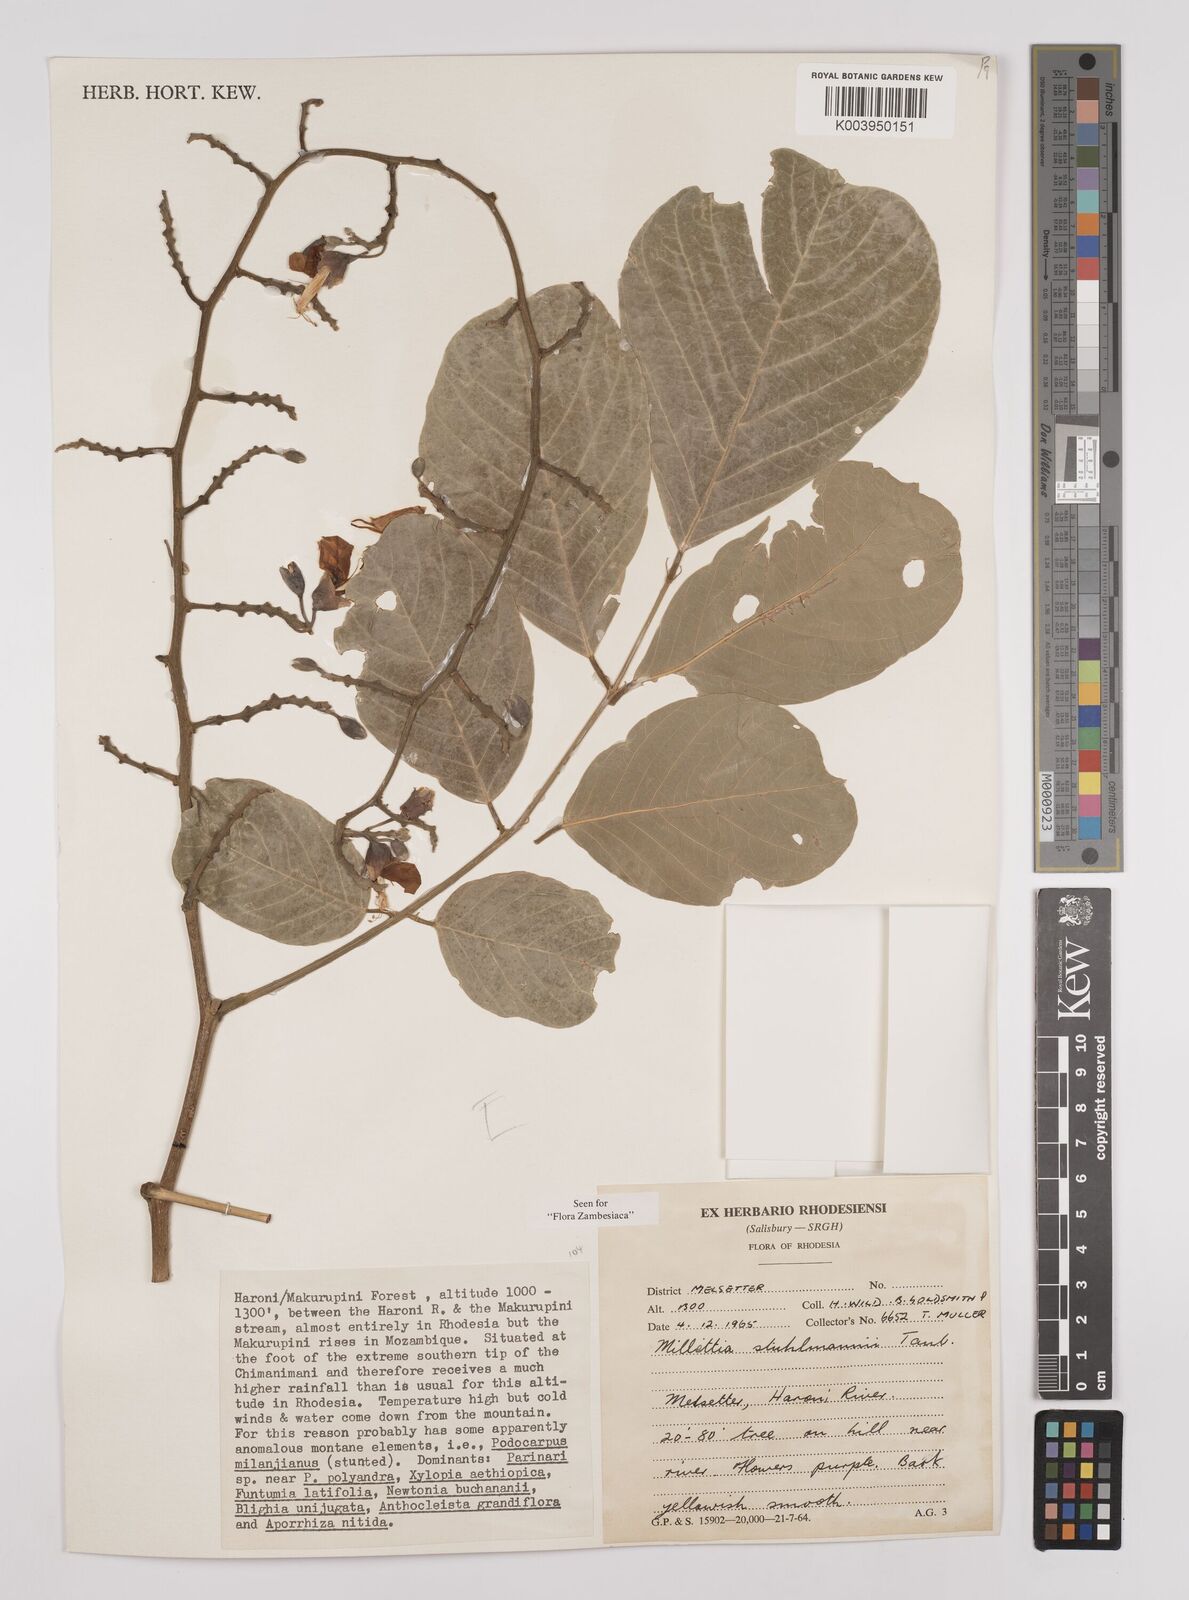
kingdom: Plantae
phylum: Tracheophyta
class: Magnoliopsida
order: Fabales
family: Fabaceae
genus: Millettia
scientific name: Millettia stuhlmannii
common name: Panga-panga
